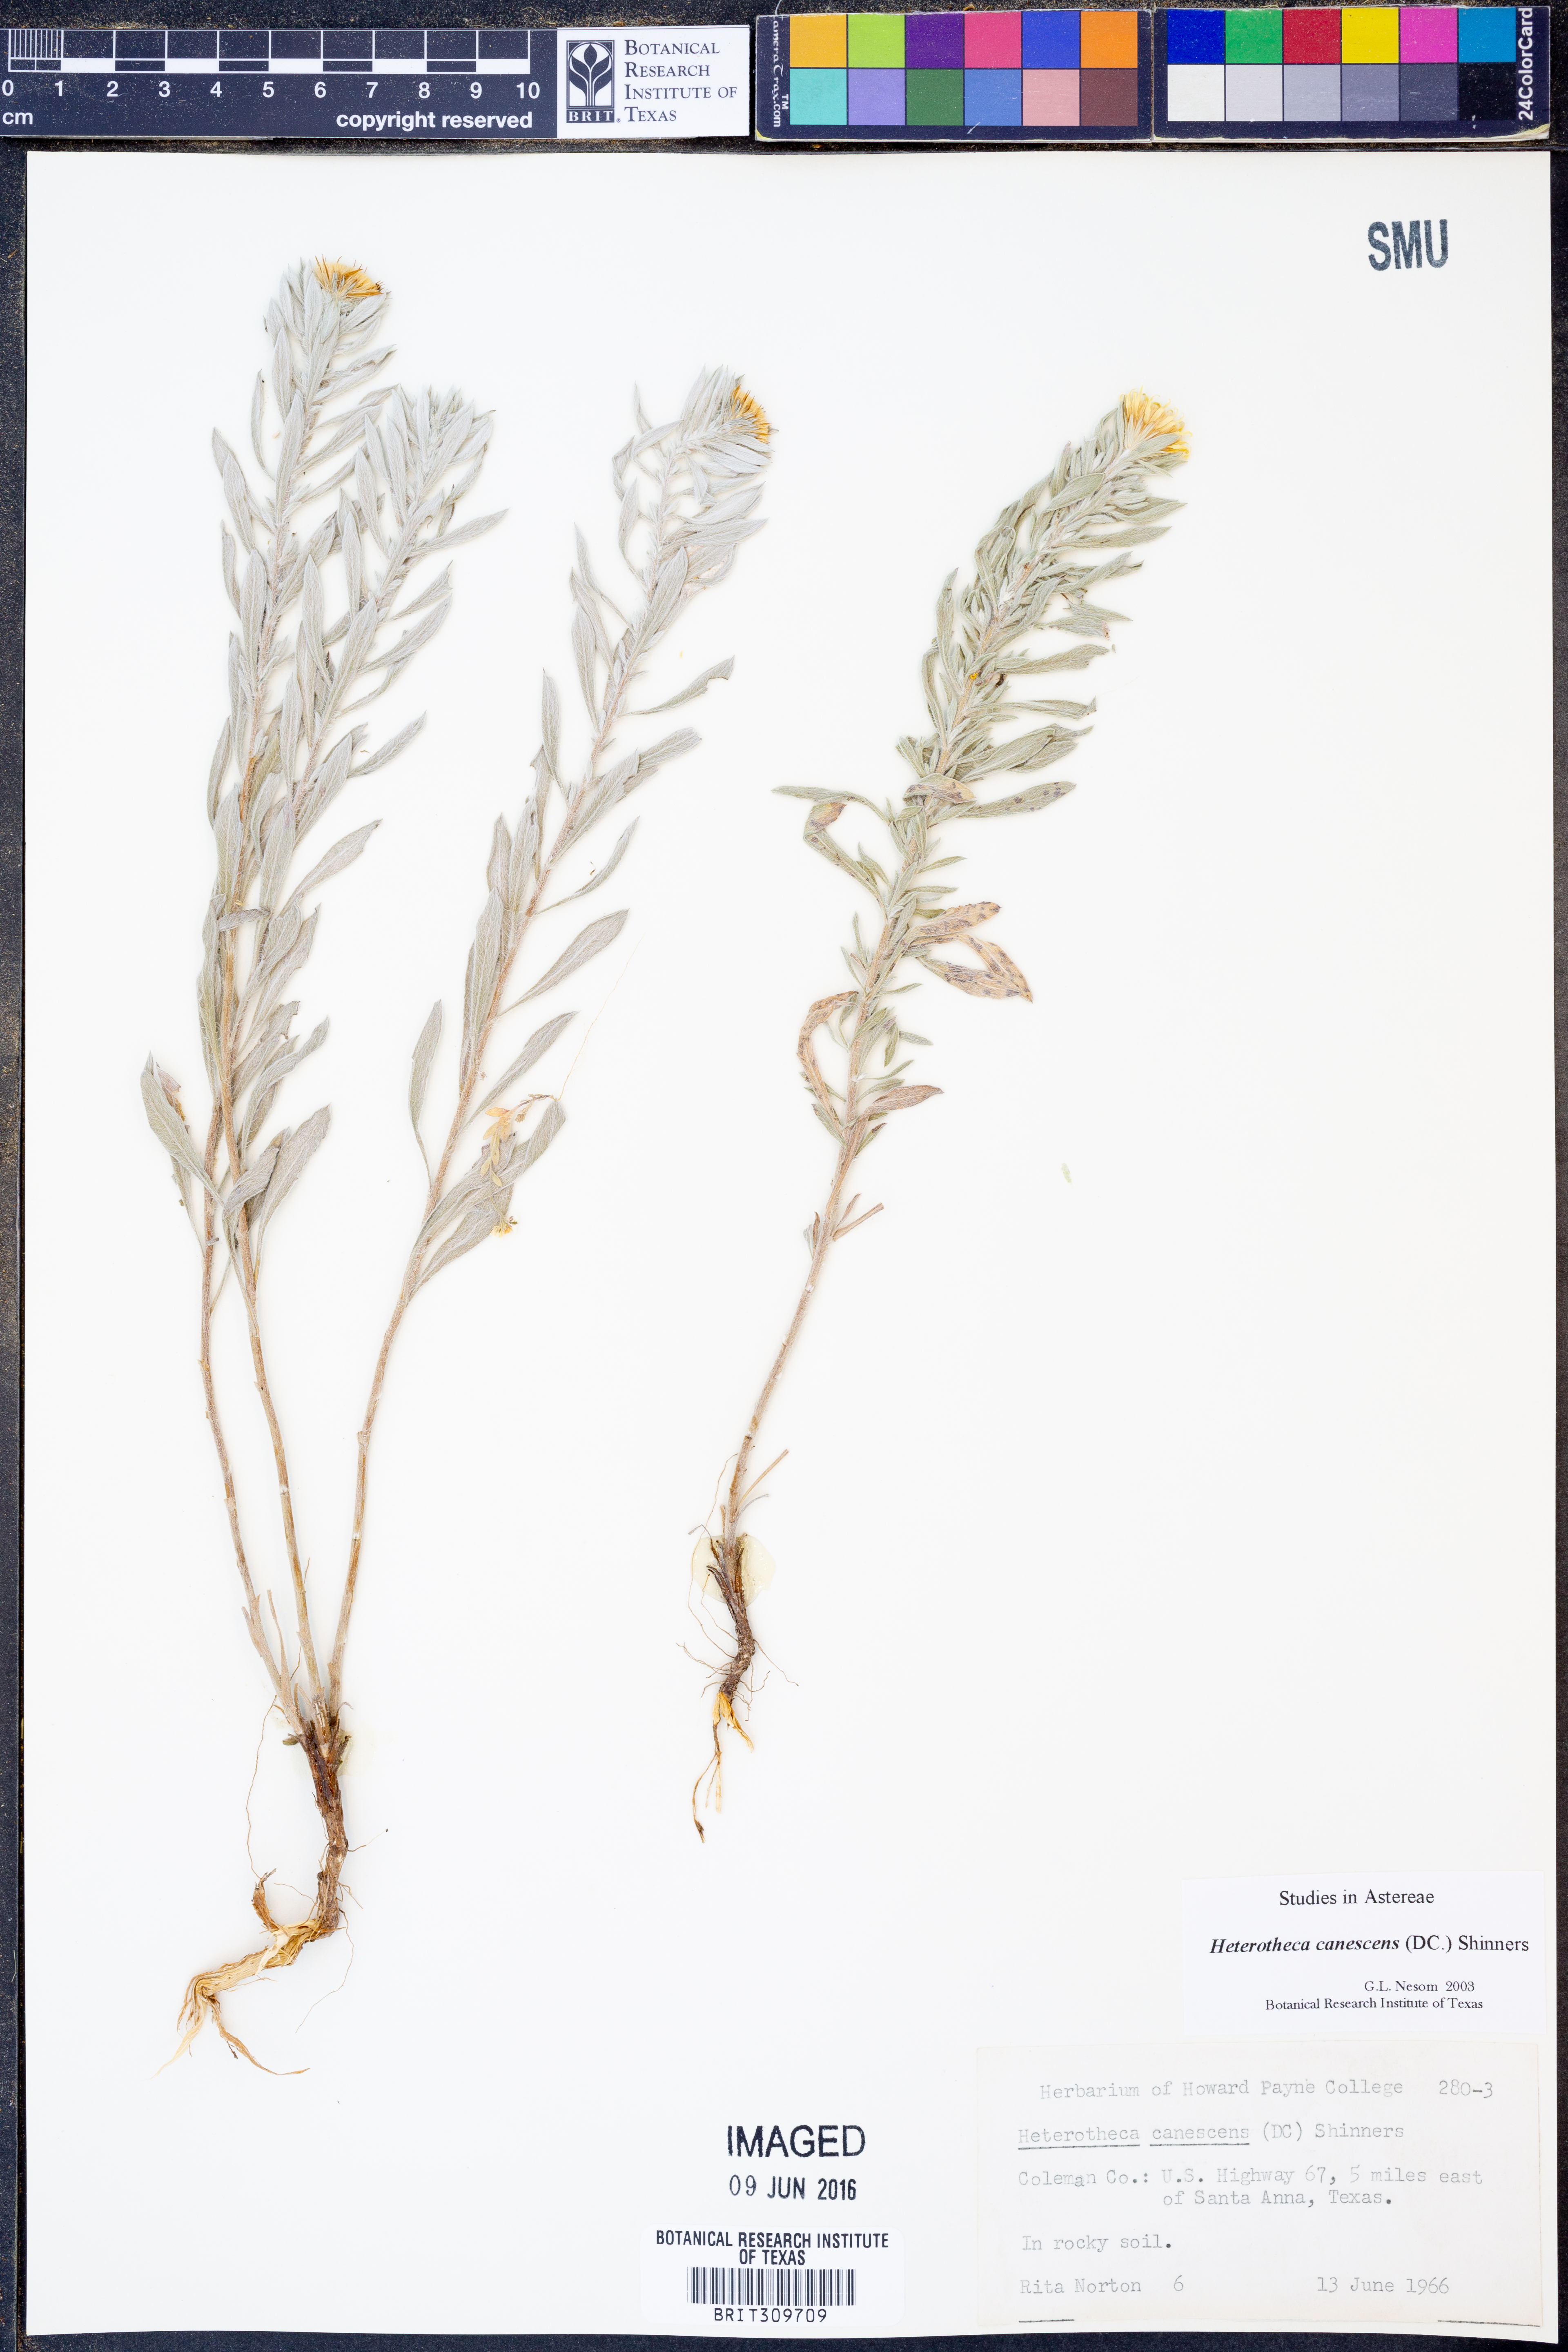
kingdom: Plantae
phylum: Tracheophyta
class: Magnoliopsida
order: Asterales
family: Asteraceae
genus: Heterotheca
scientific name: Heterotheca canescens
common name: Hoary golden-aster
